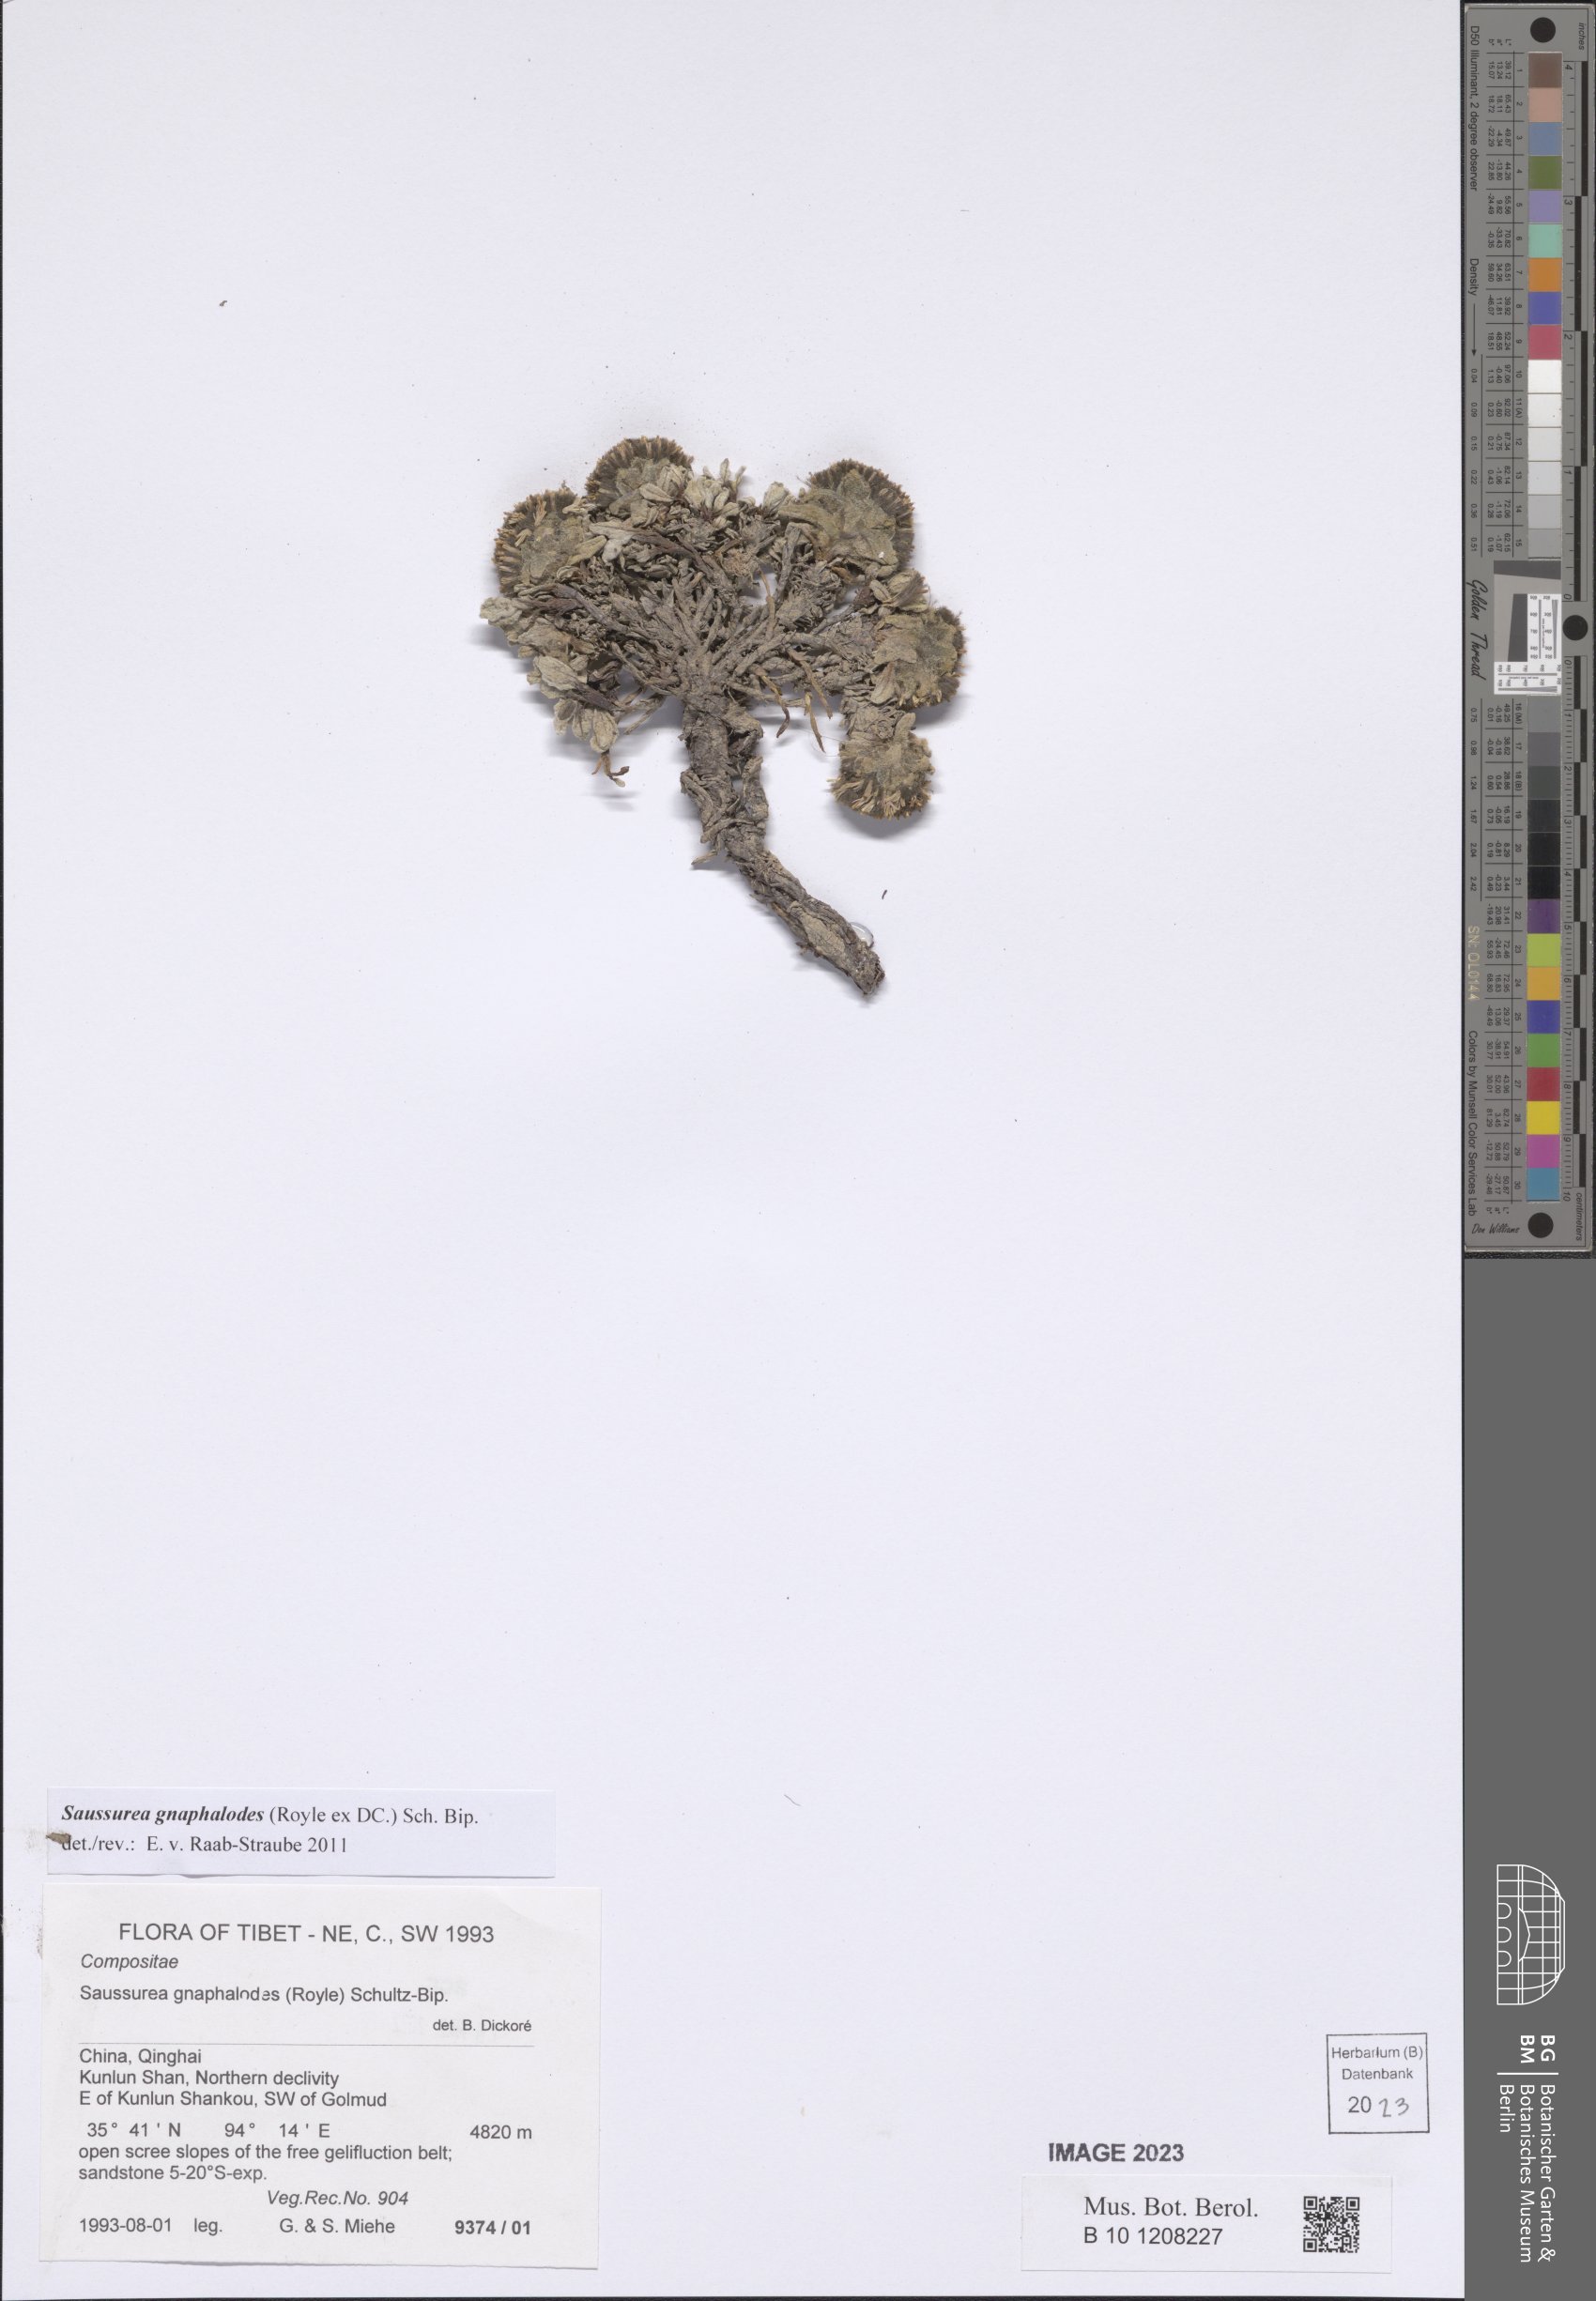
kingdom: Plantae
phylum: Tracheophyta
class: Magnoliopsida
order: Asterales
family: Asteraceae
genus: Saussurea
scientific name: Saussurea gnaphalodes
